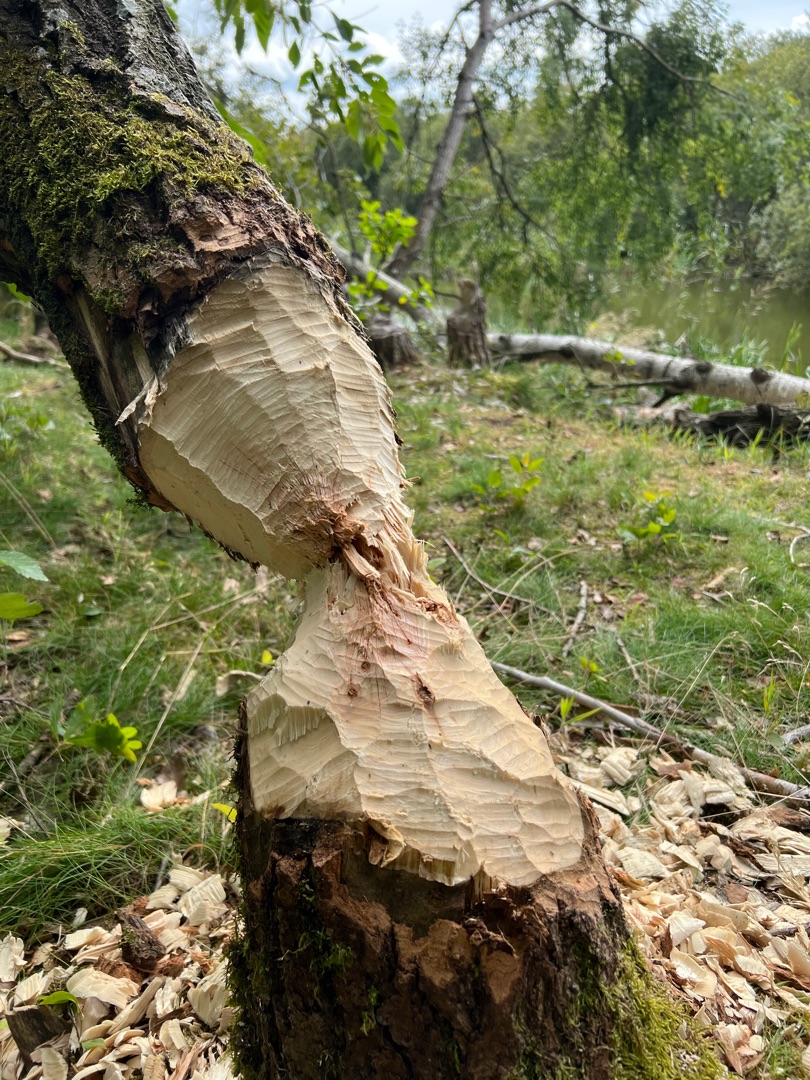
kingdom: Animalia
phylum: Chordata
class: Mammalia
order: Rodentia
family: Castoridae
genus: Castor
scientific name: Castor fiber
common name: Bæver
